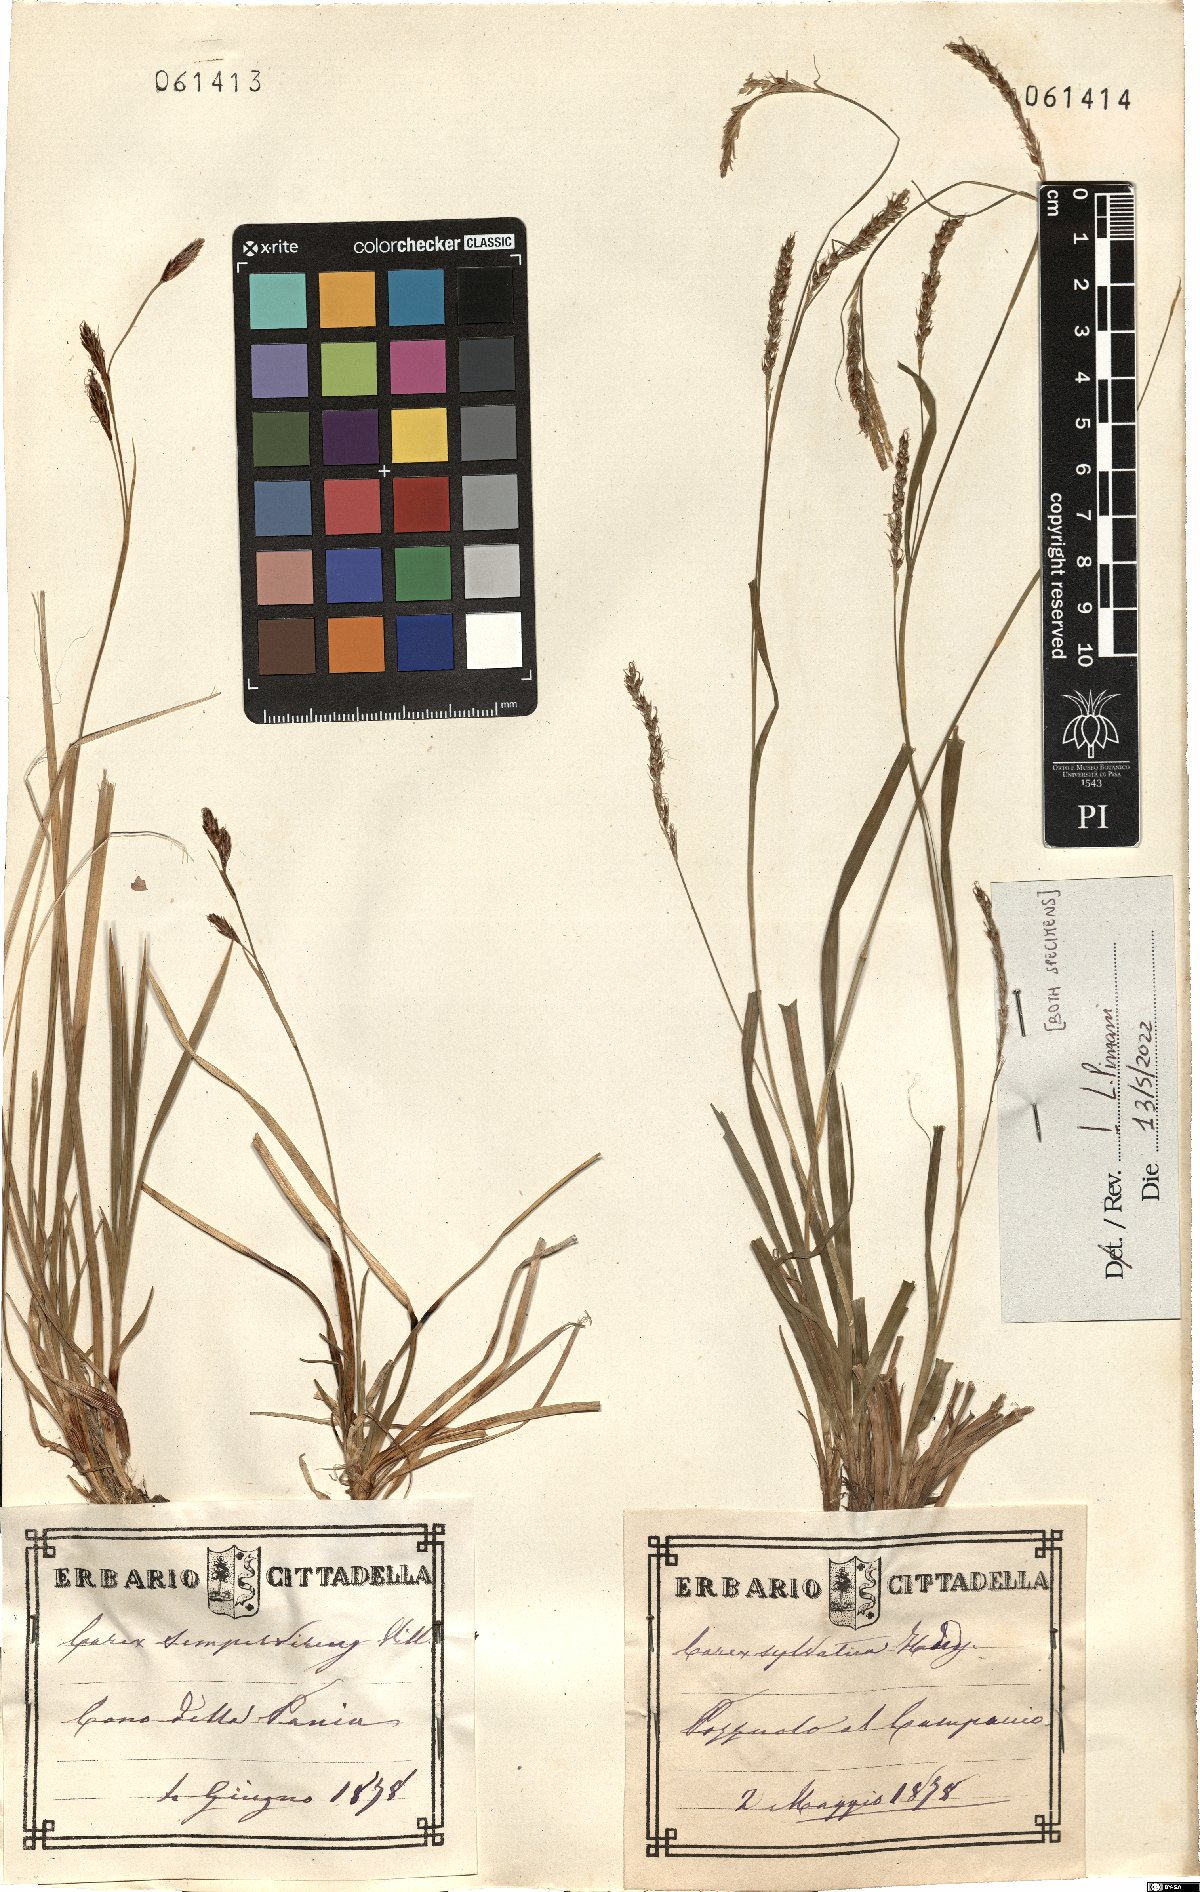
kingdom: Plantae
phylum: Tracheophyta
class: Liliopsida
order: Poales
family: Cyperaceae
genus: Carex
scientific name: Carex sylvatica
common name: Wood-sedge
